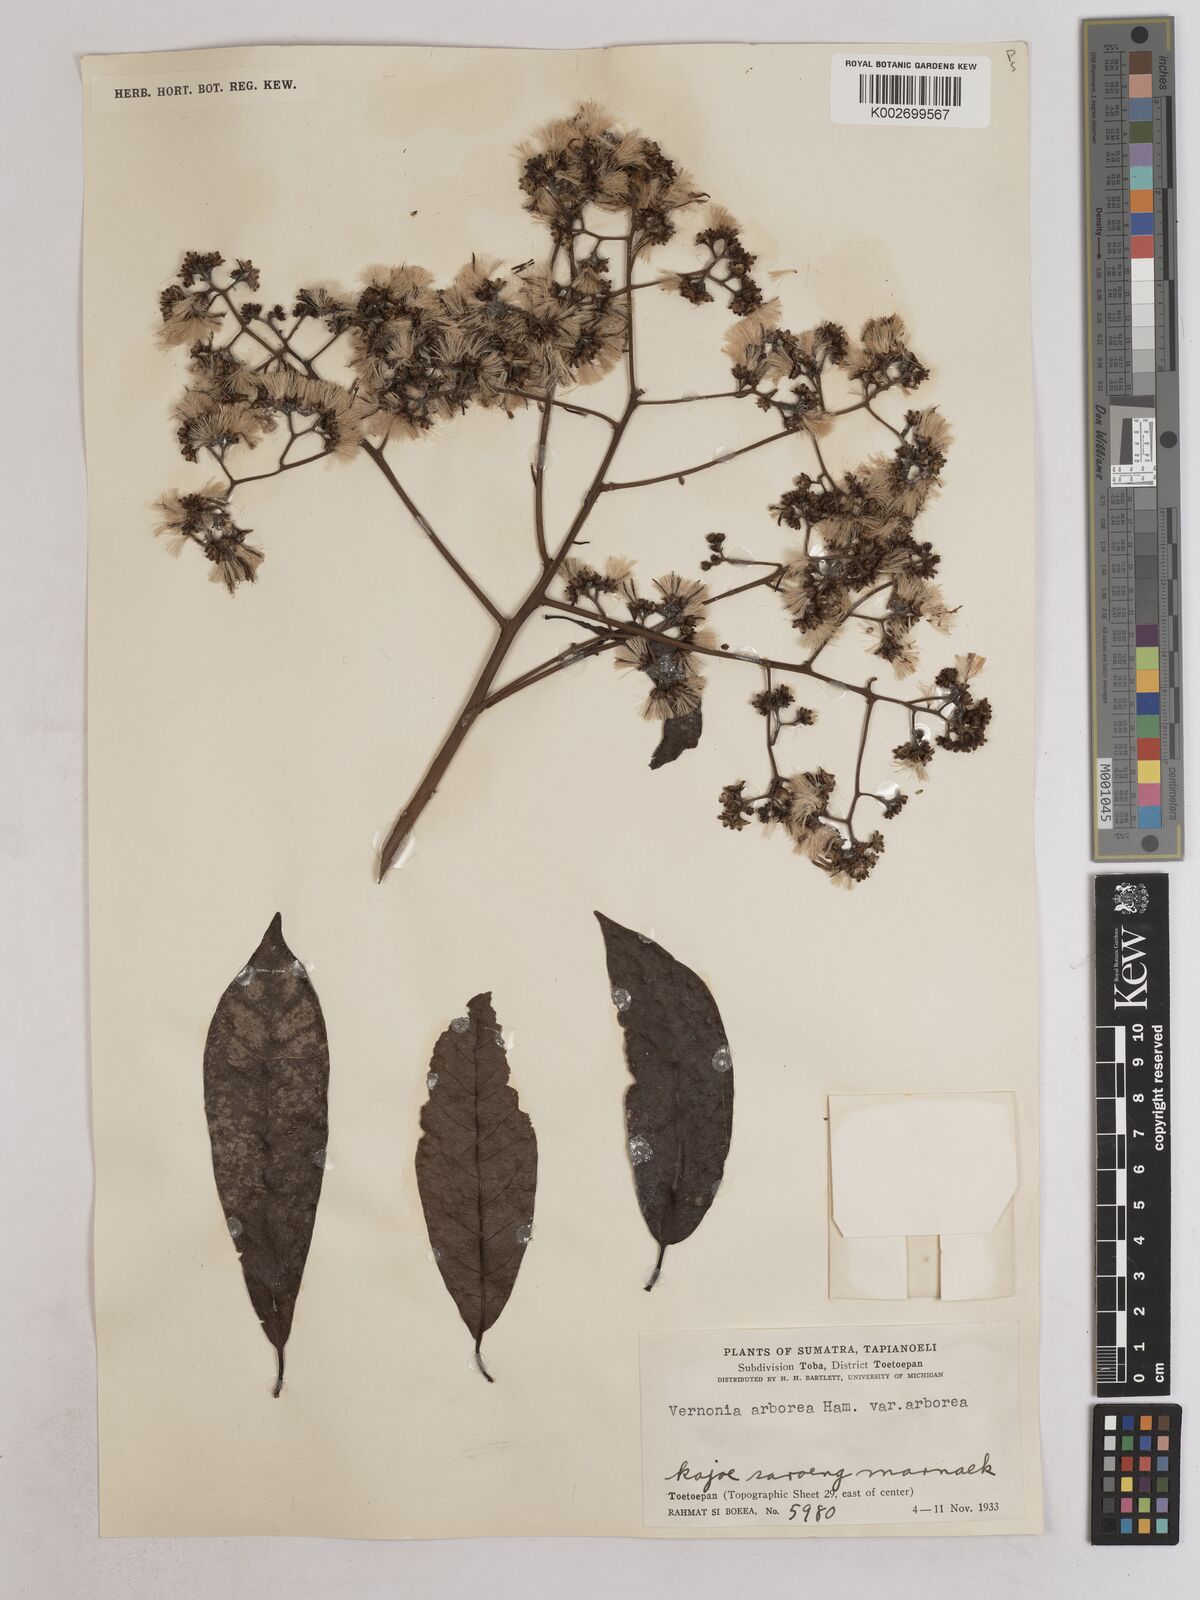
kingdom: Plantae
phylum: Tracheophyta
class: Magnoliopsida
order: Asterales
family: Asteraceae
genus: Strobocalyx
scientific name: Strobocalyx arborea
